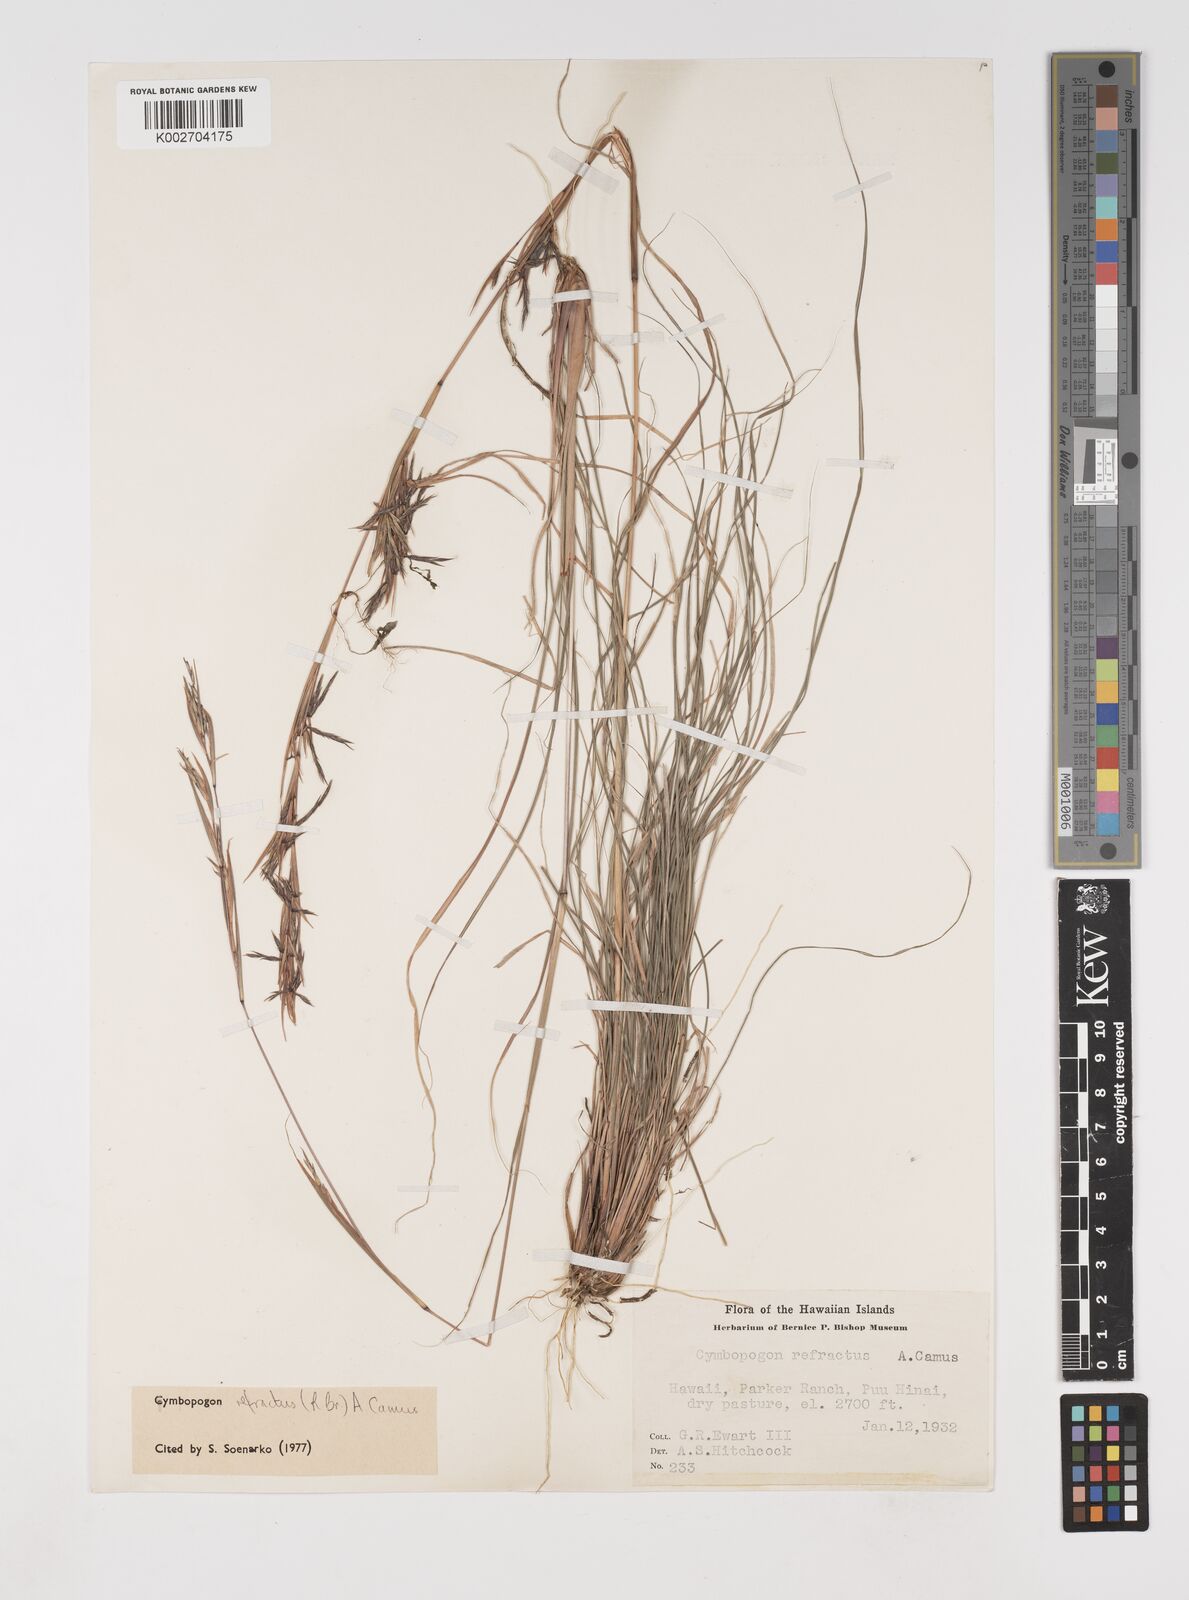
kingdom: Plantae
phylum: Tracheophyta
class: Liliopsida
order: Poales
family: Poaceae
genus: Cymbopogon
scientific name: Cymbopogon refractus
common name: Barbwire grass
